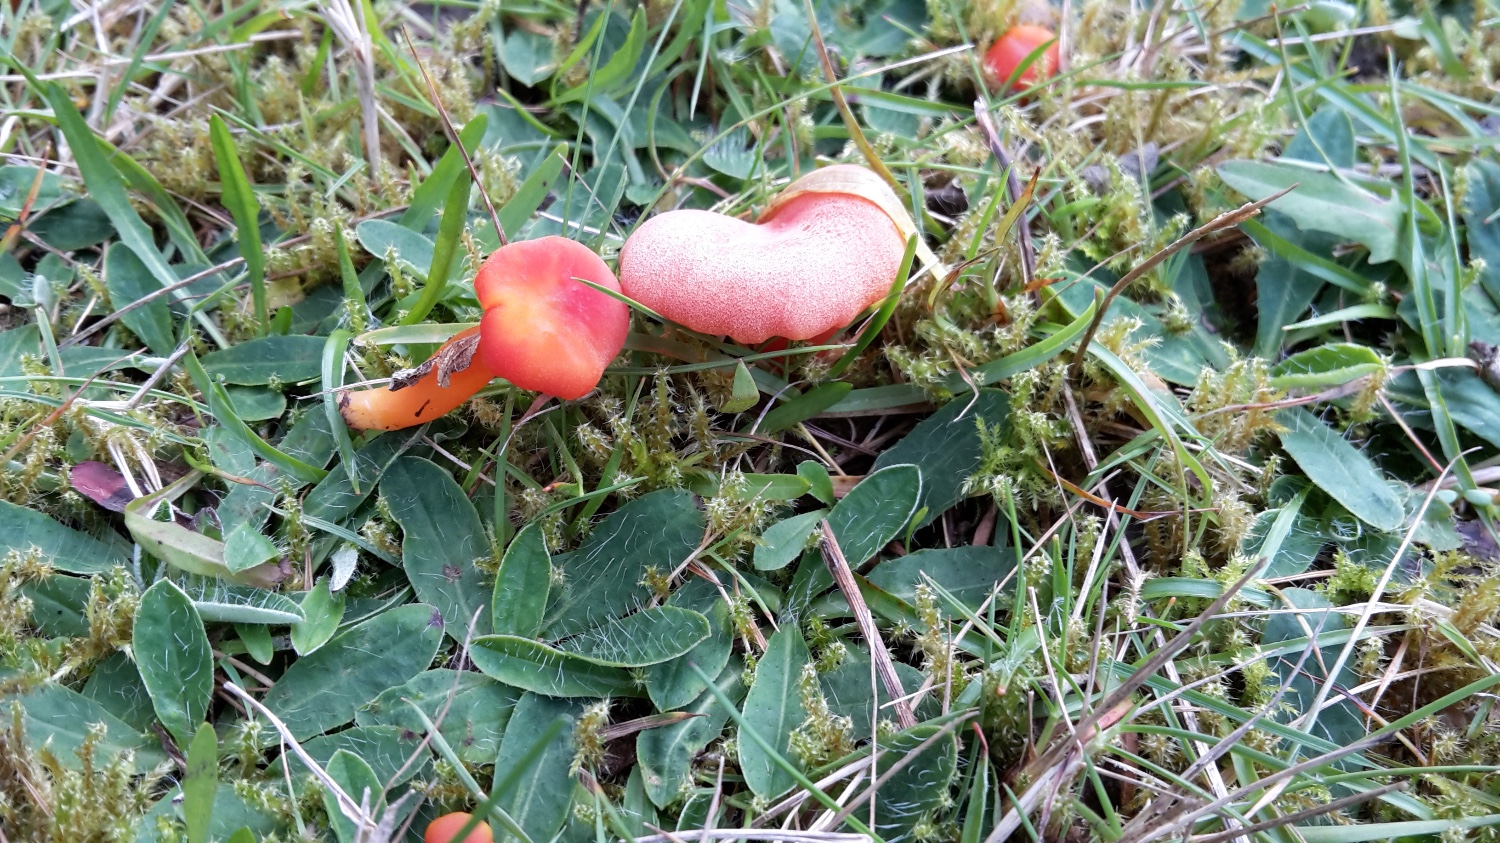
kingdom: Fungi
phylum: Basidiomycota
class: Agaricomycetes
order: Agaricales
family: Hygrophoraceae
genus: Hygrocybe
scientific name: Hygrocybe miniata
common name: mønje-vokshat
